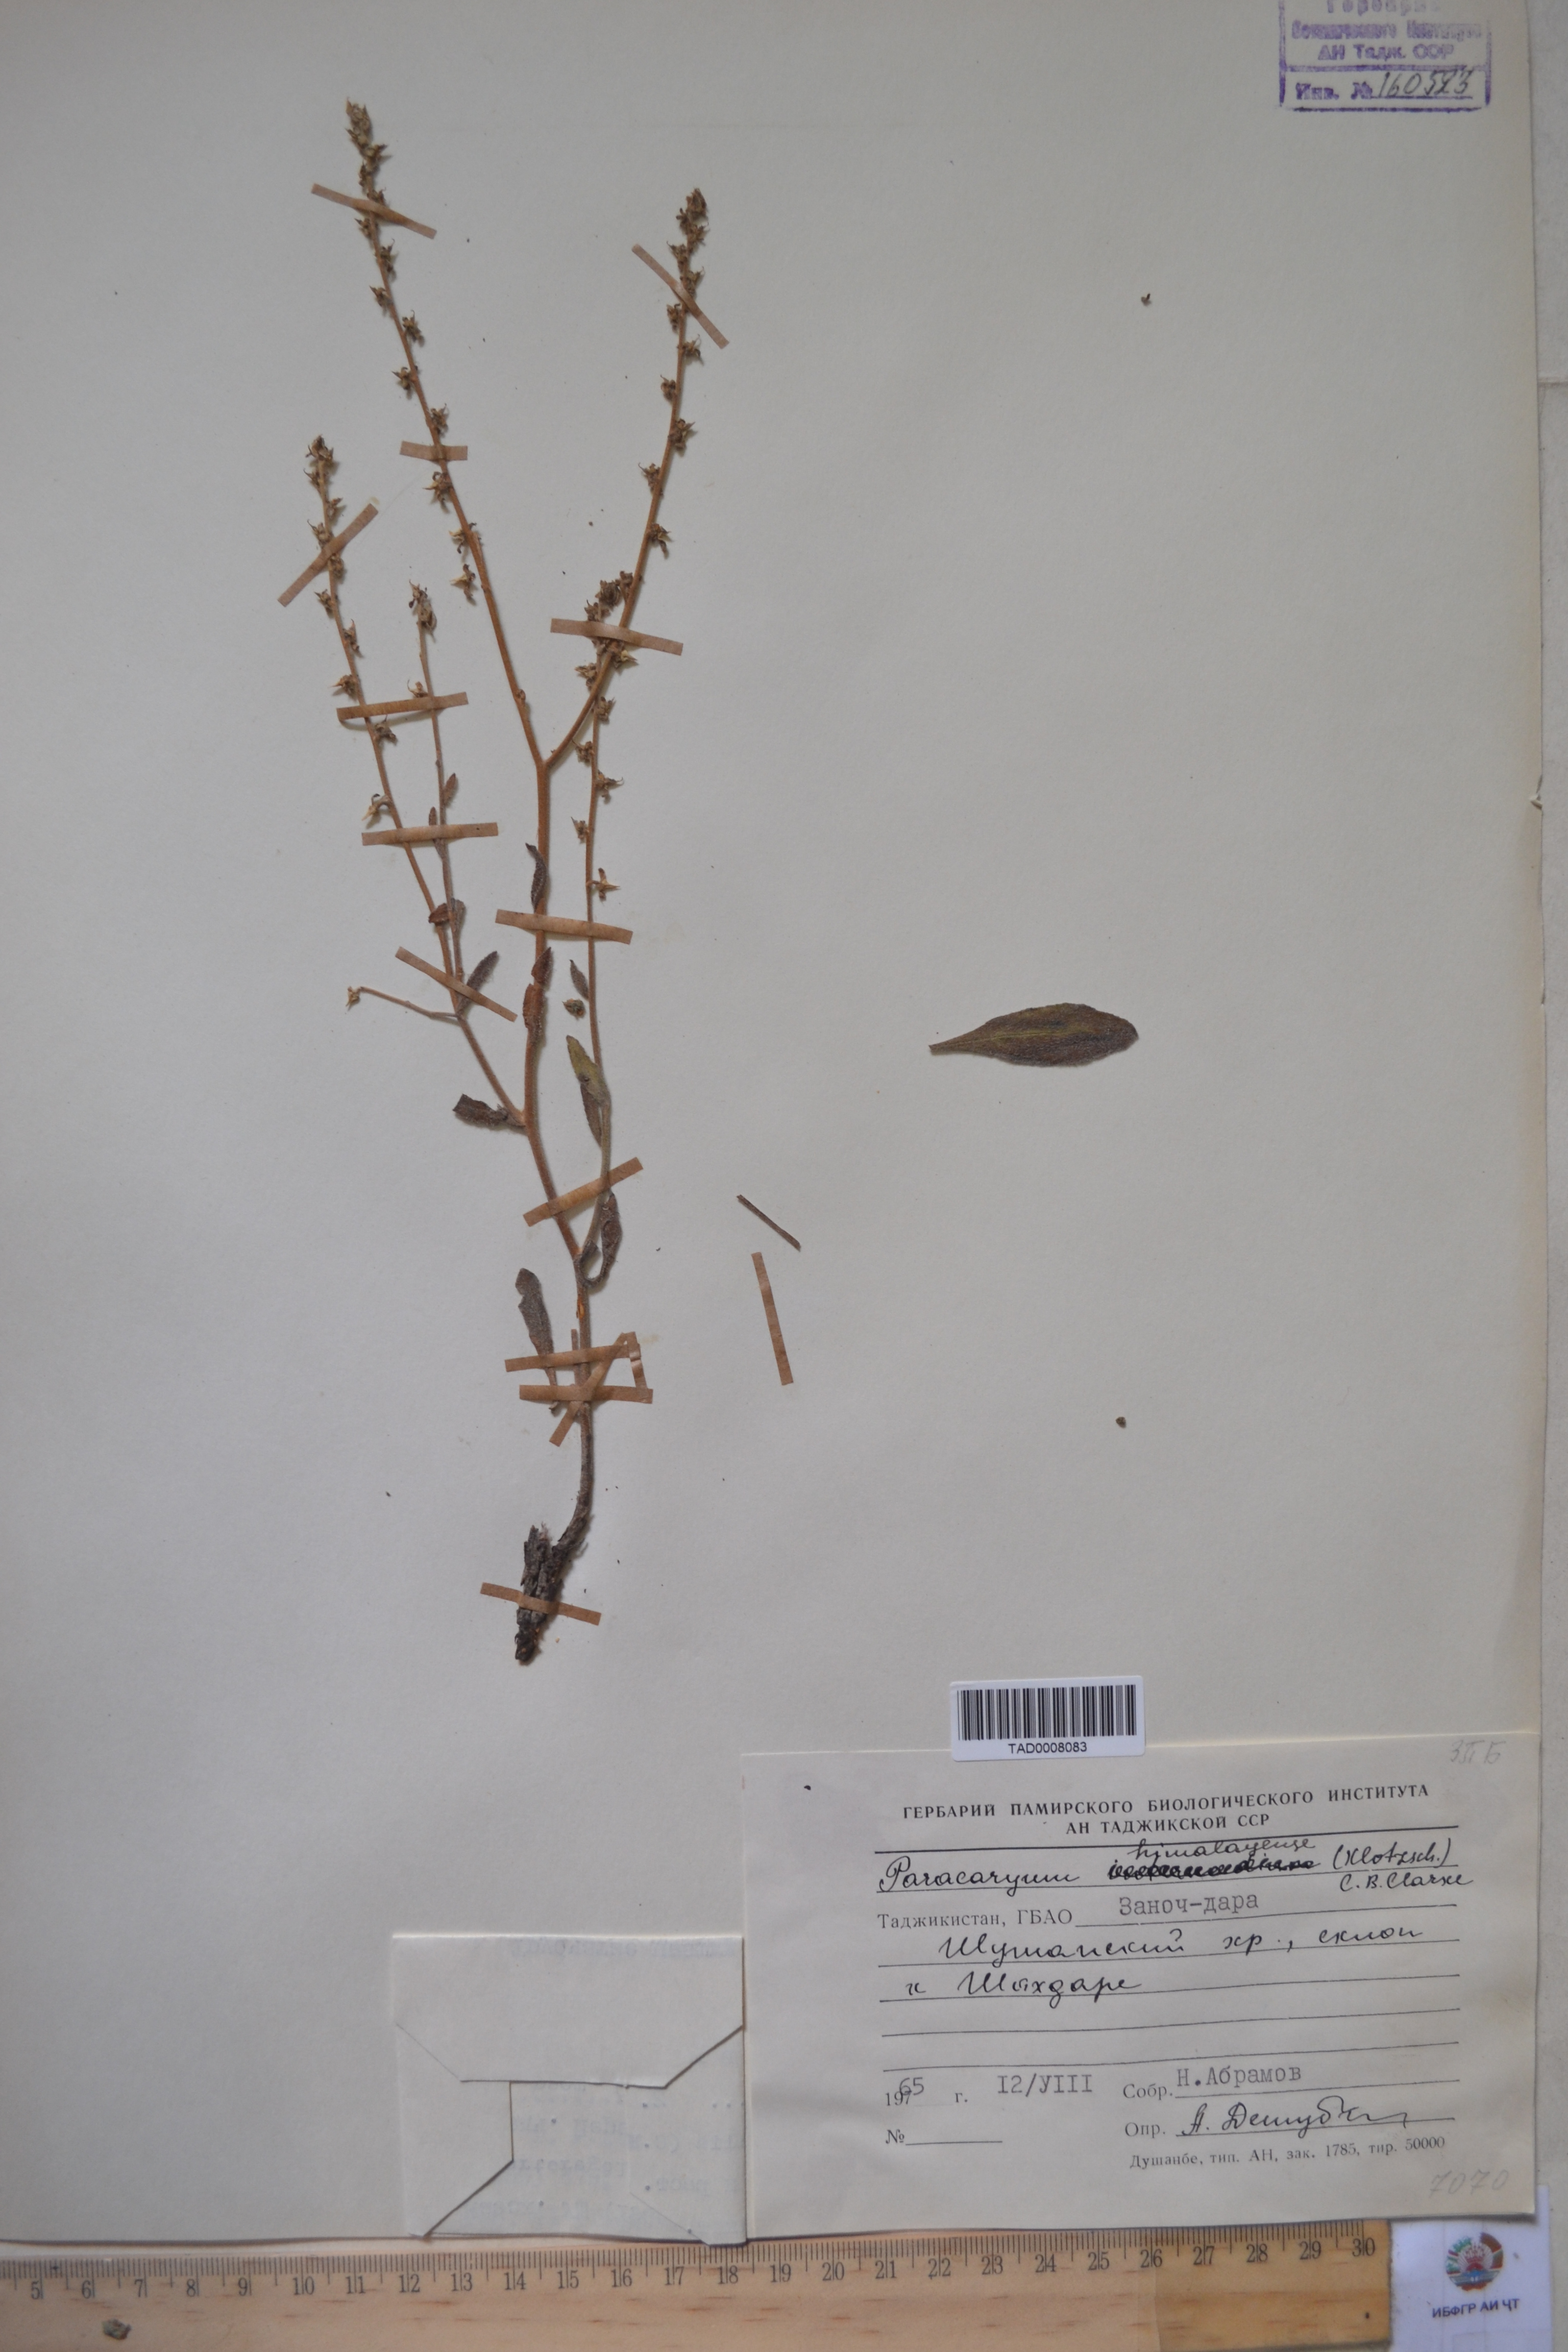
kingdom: Plantae
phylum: Tracheophyta
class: Magnoliopsida
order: Boraginales
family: Boraginaceae
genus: Paracaryum
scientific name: Paracaryum himalayense
